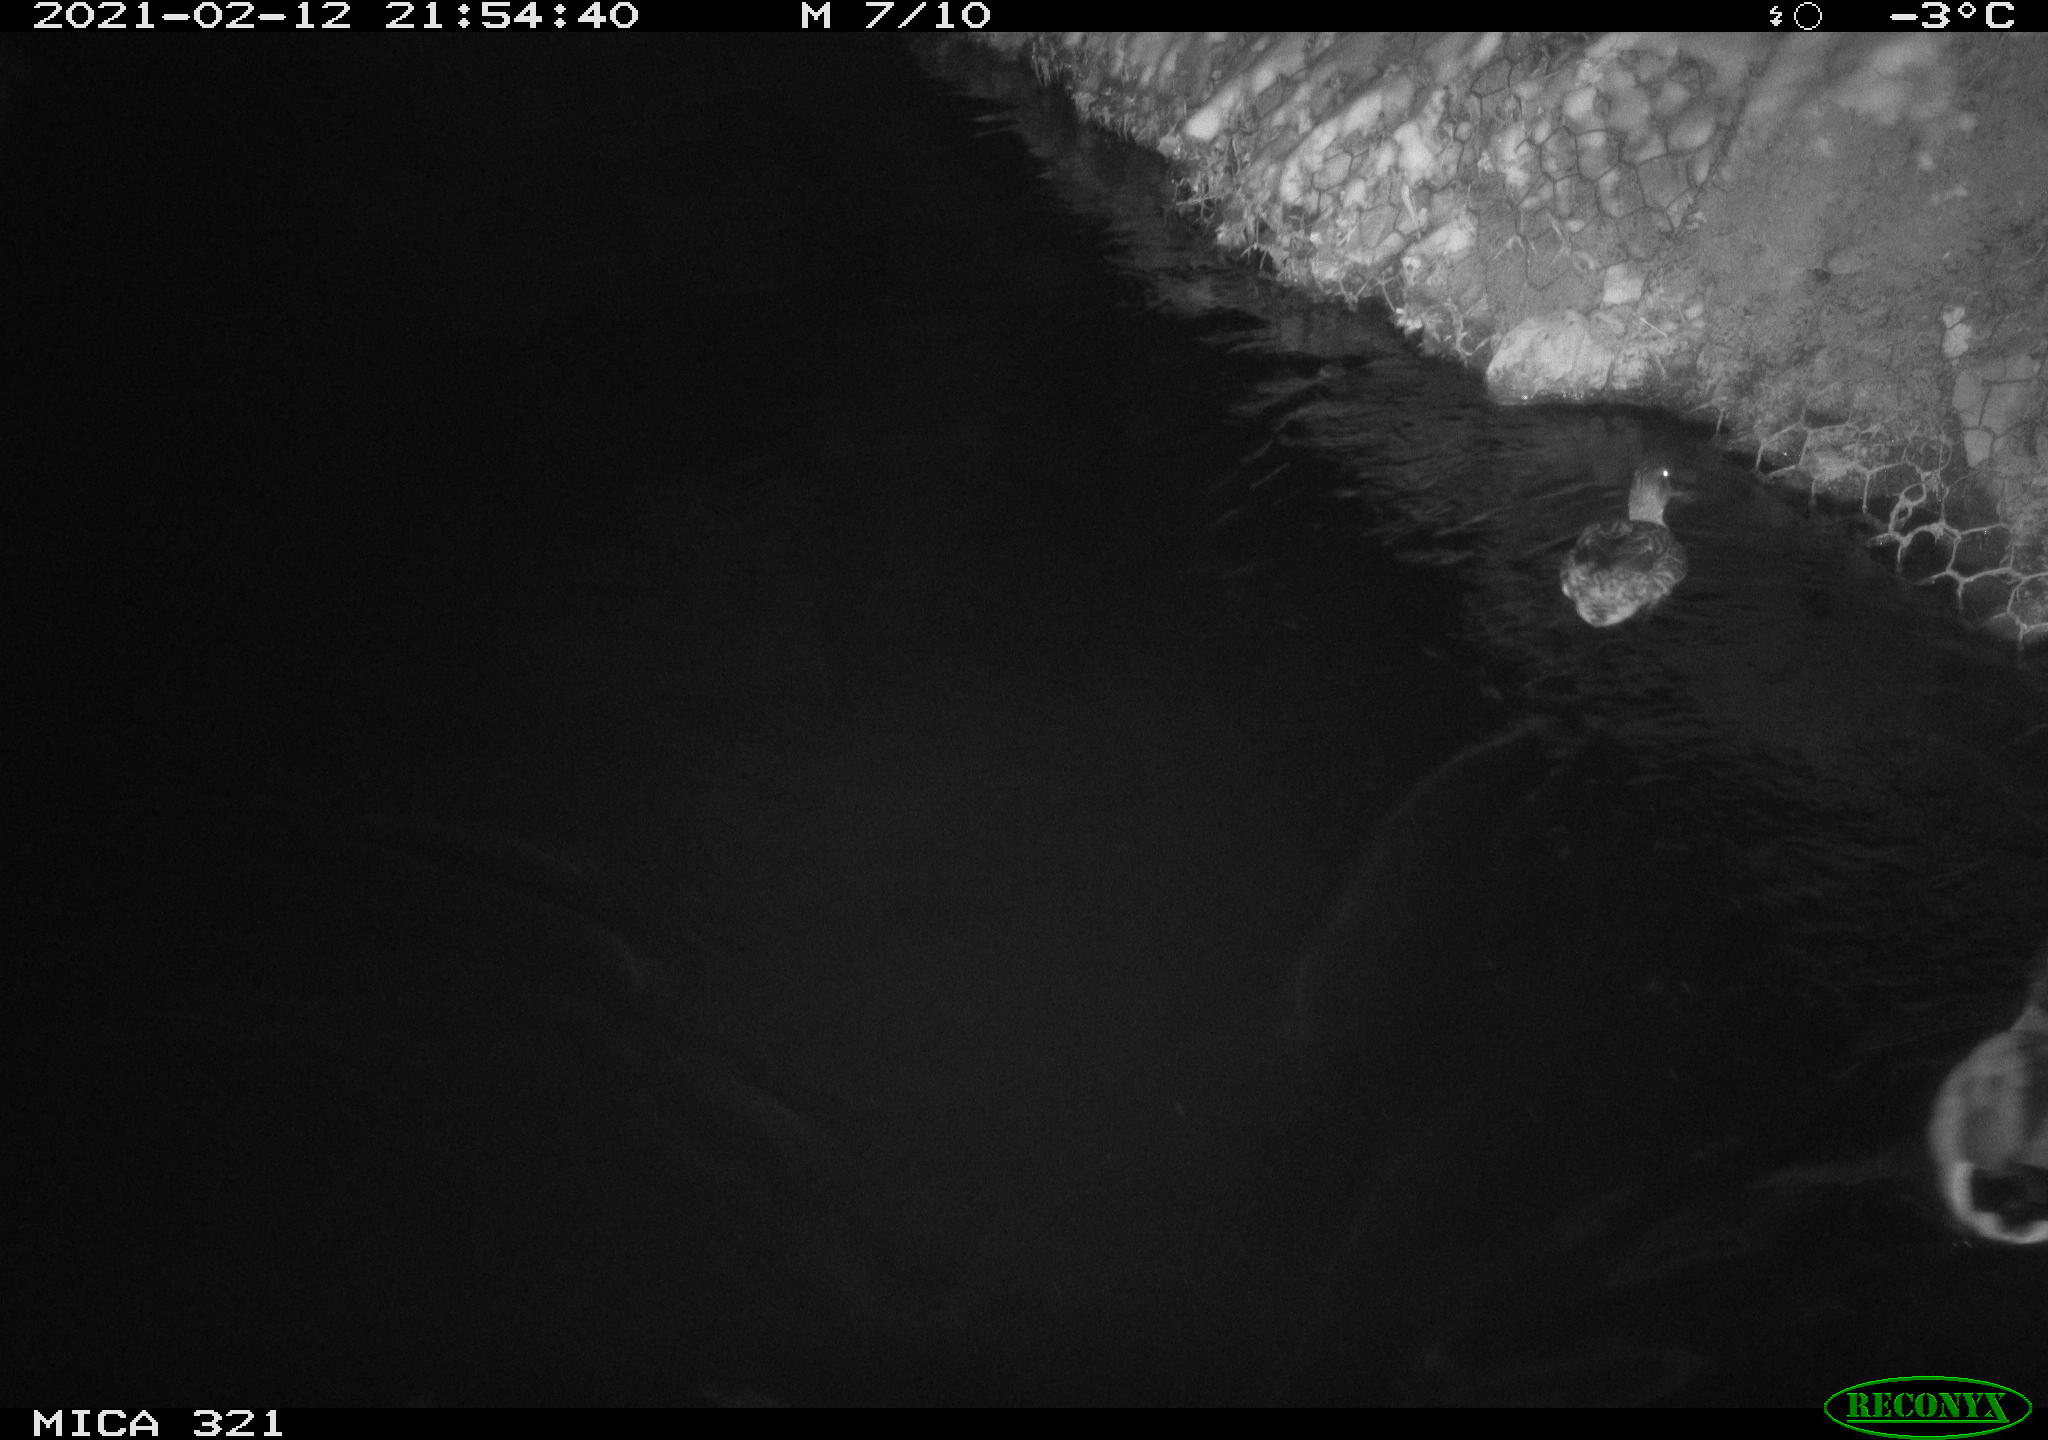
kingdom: Animalia
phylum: Chordata
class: Aves
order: Anseriformes
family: Anatidae
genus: Anas
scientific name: Anas platyrhynchos
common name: Mallard
